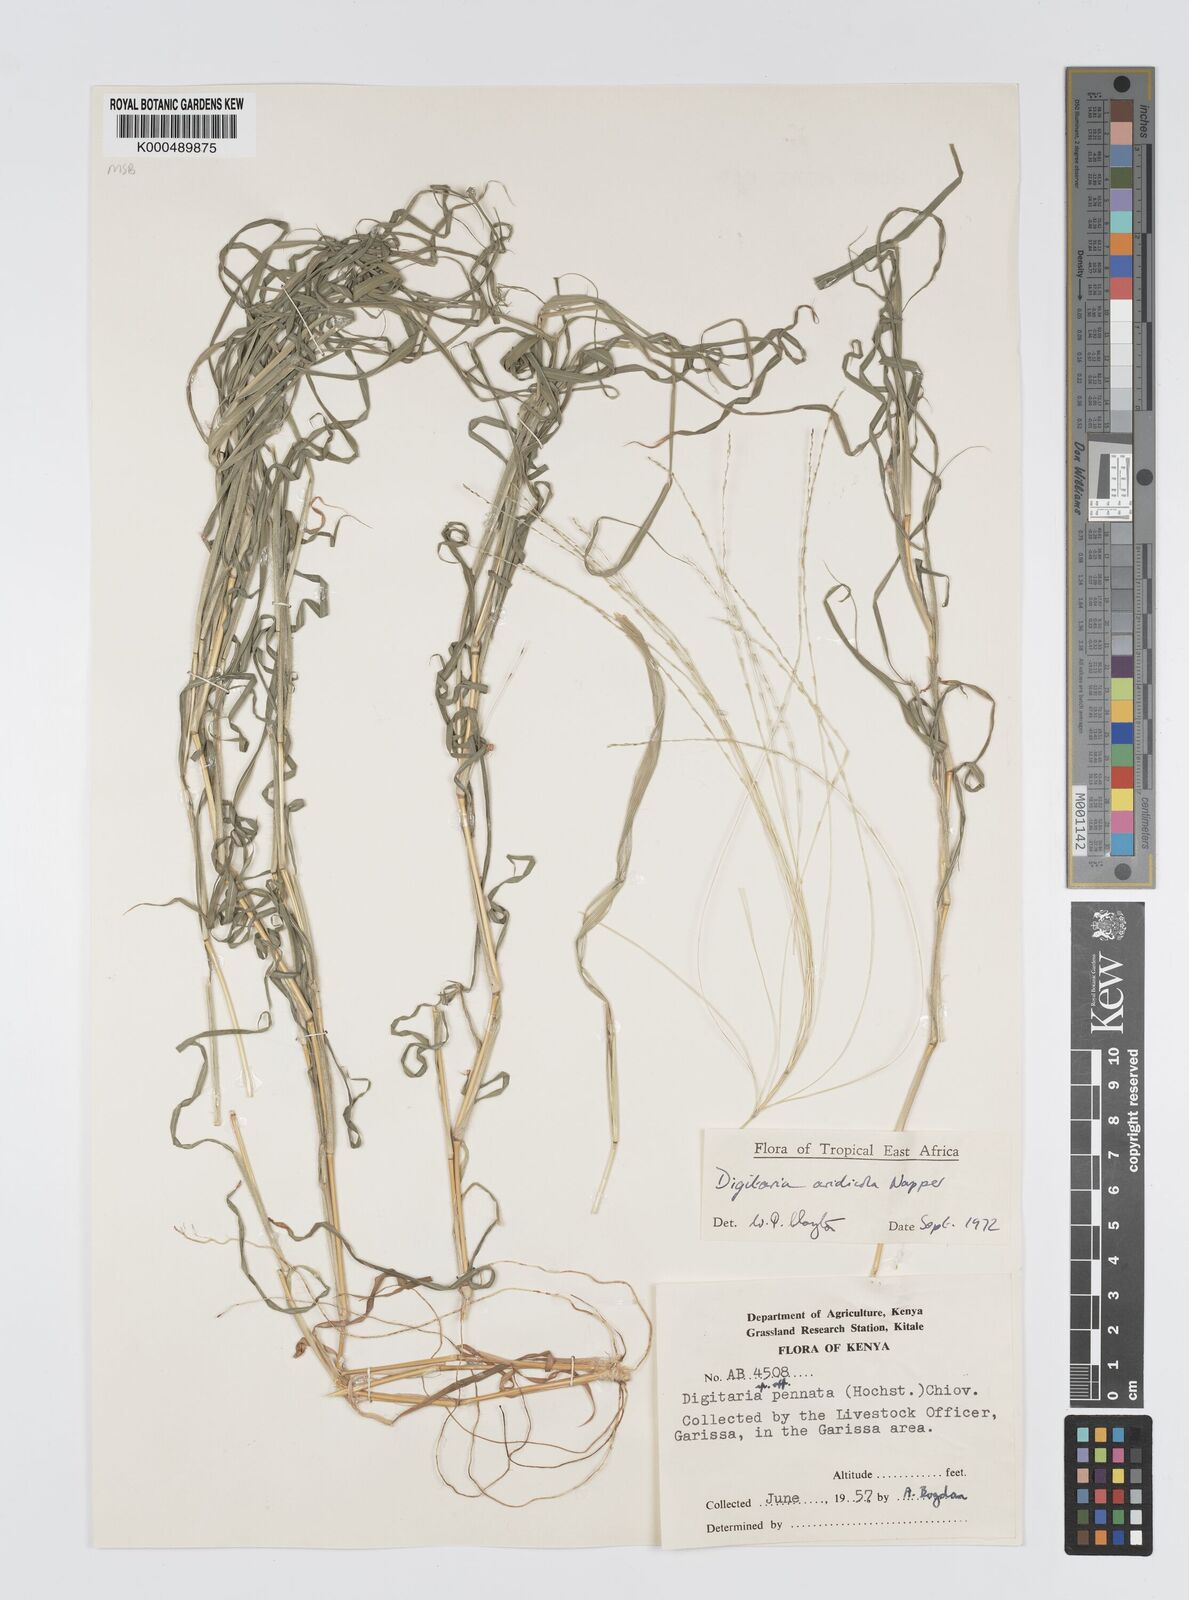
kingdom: Plantae
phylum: Tracheophyta
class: Liliopsida
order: Poales
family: Poaceae
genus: Digitaria
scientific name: Digitaria aridicola
